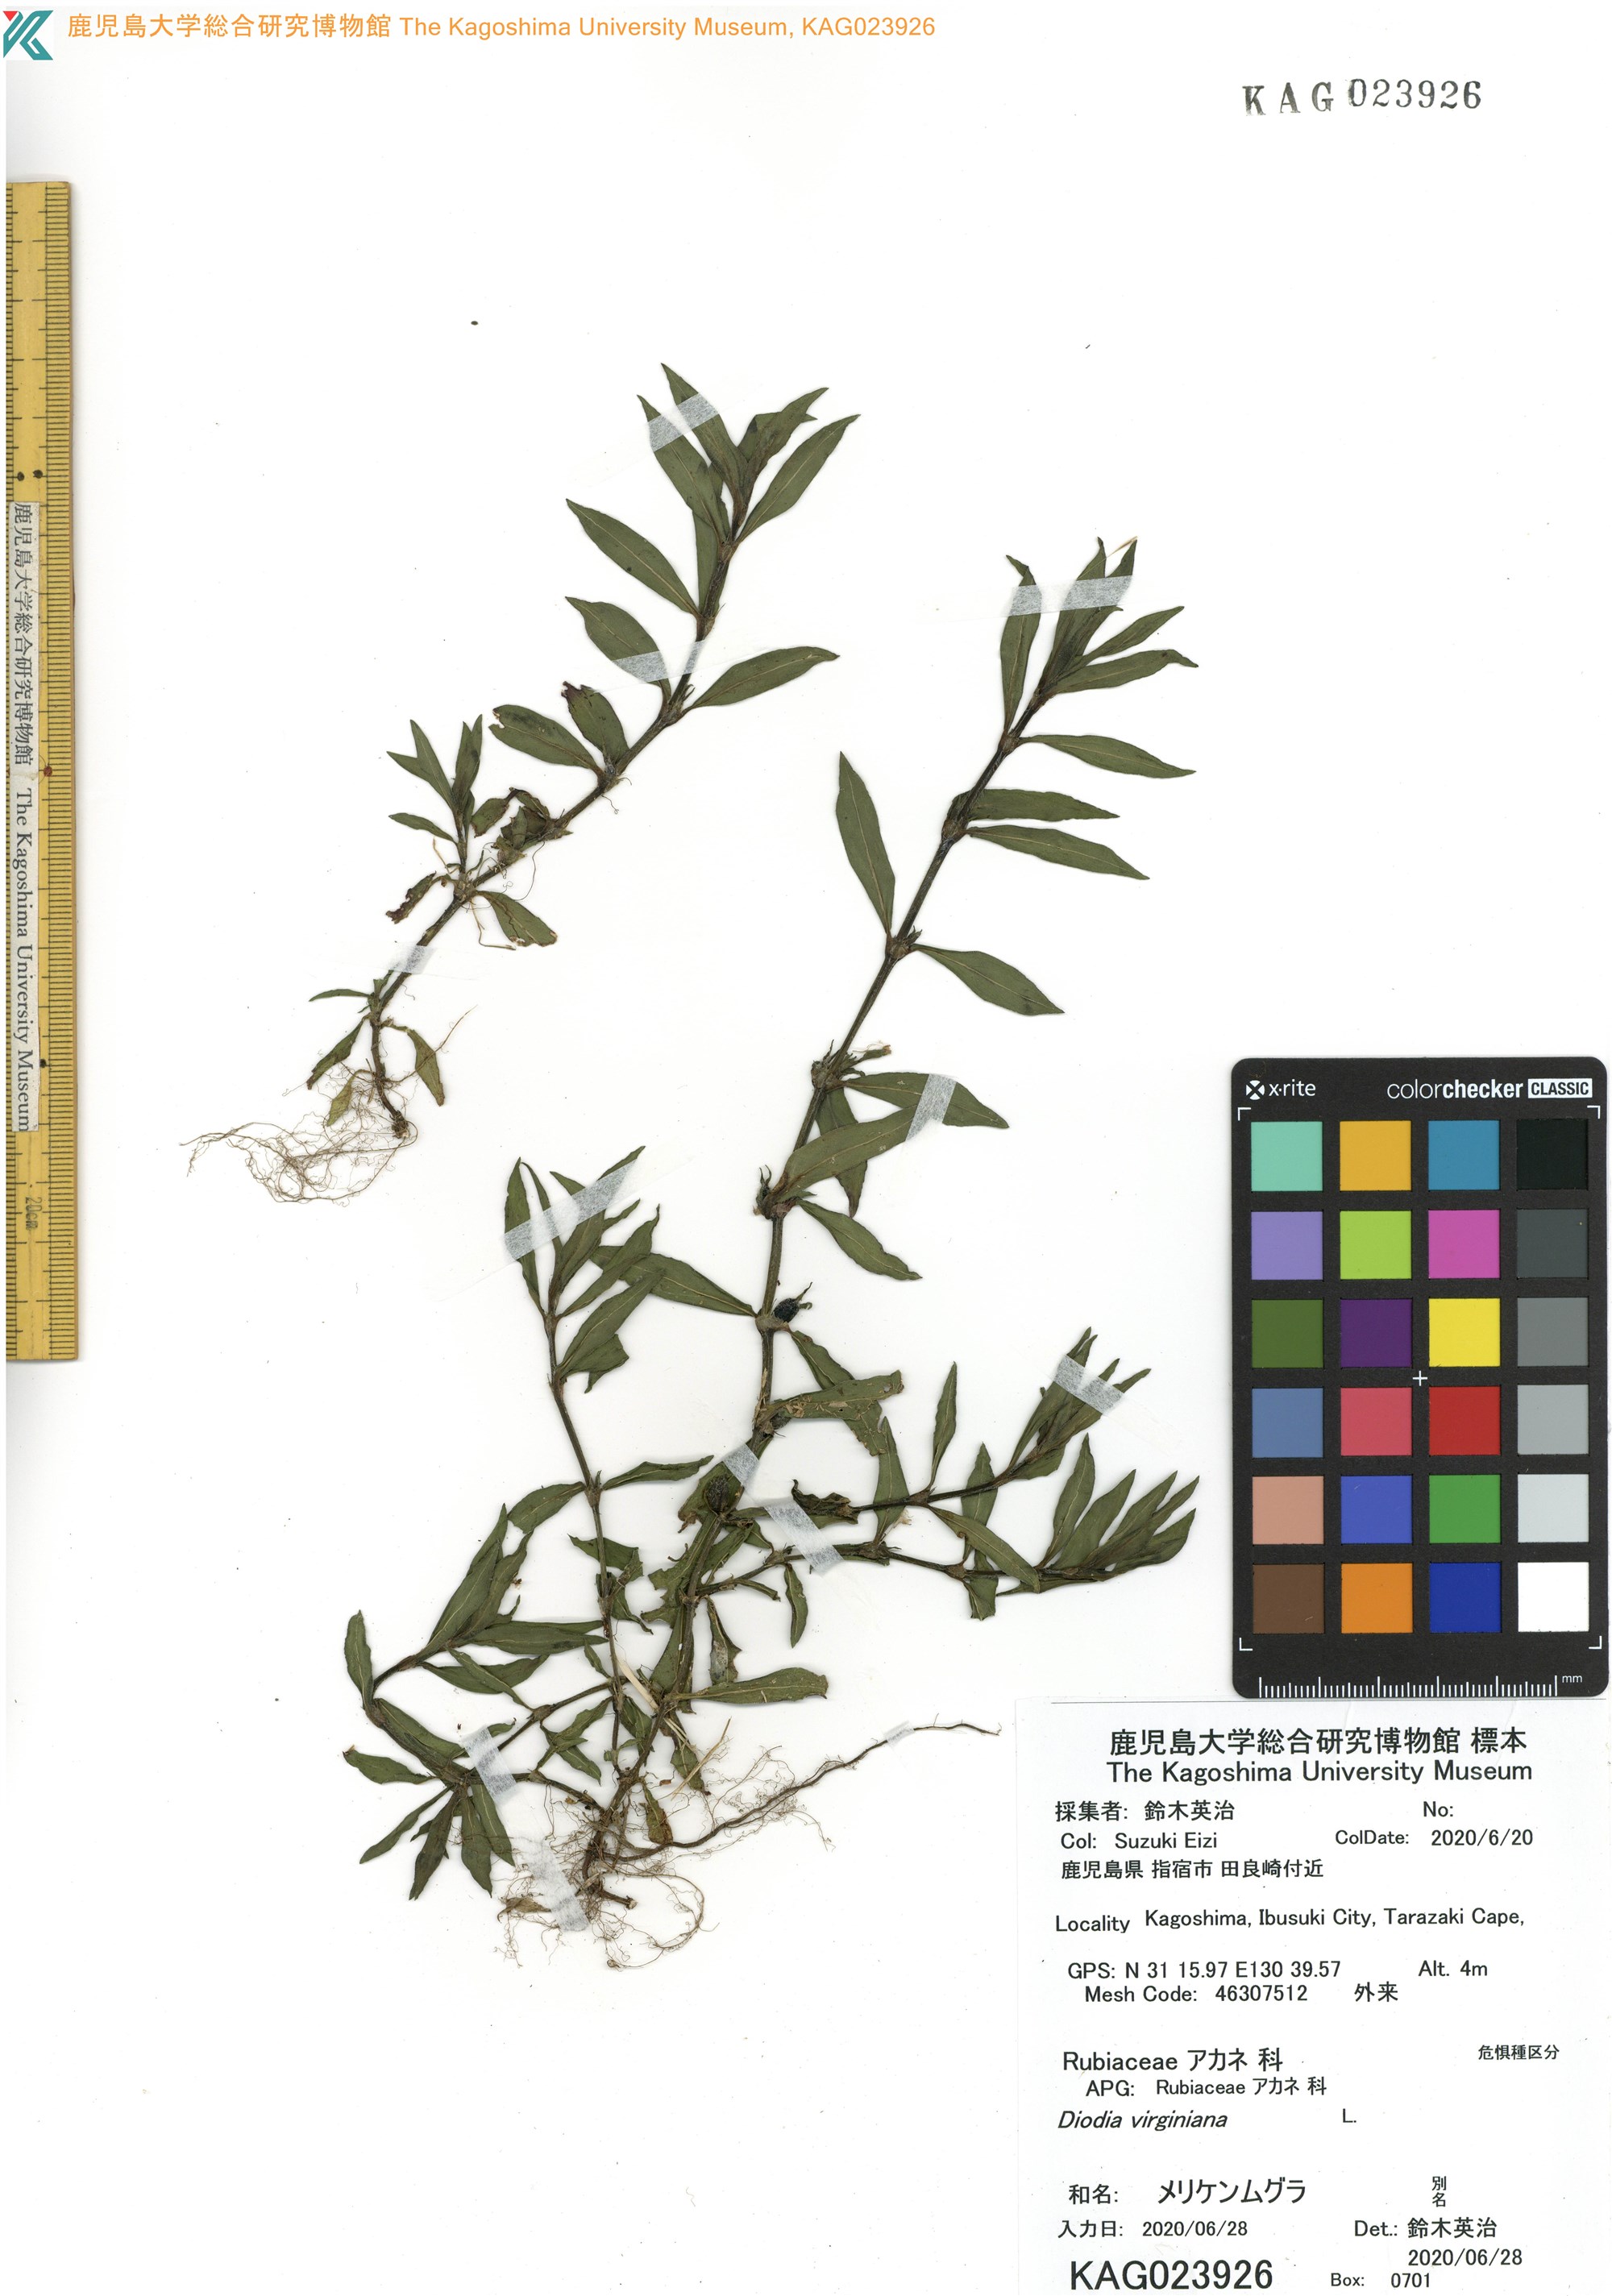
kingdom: Plantae
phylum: Tracheophyta
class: Magnoliopsida
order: Gentianales
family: Rubiaceae
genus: Diodia
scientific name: Diodia virginiana
